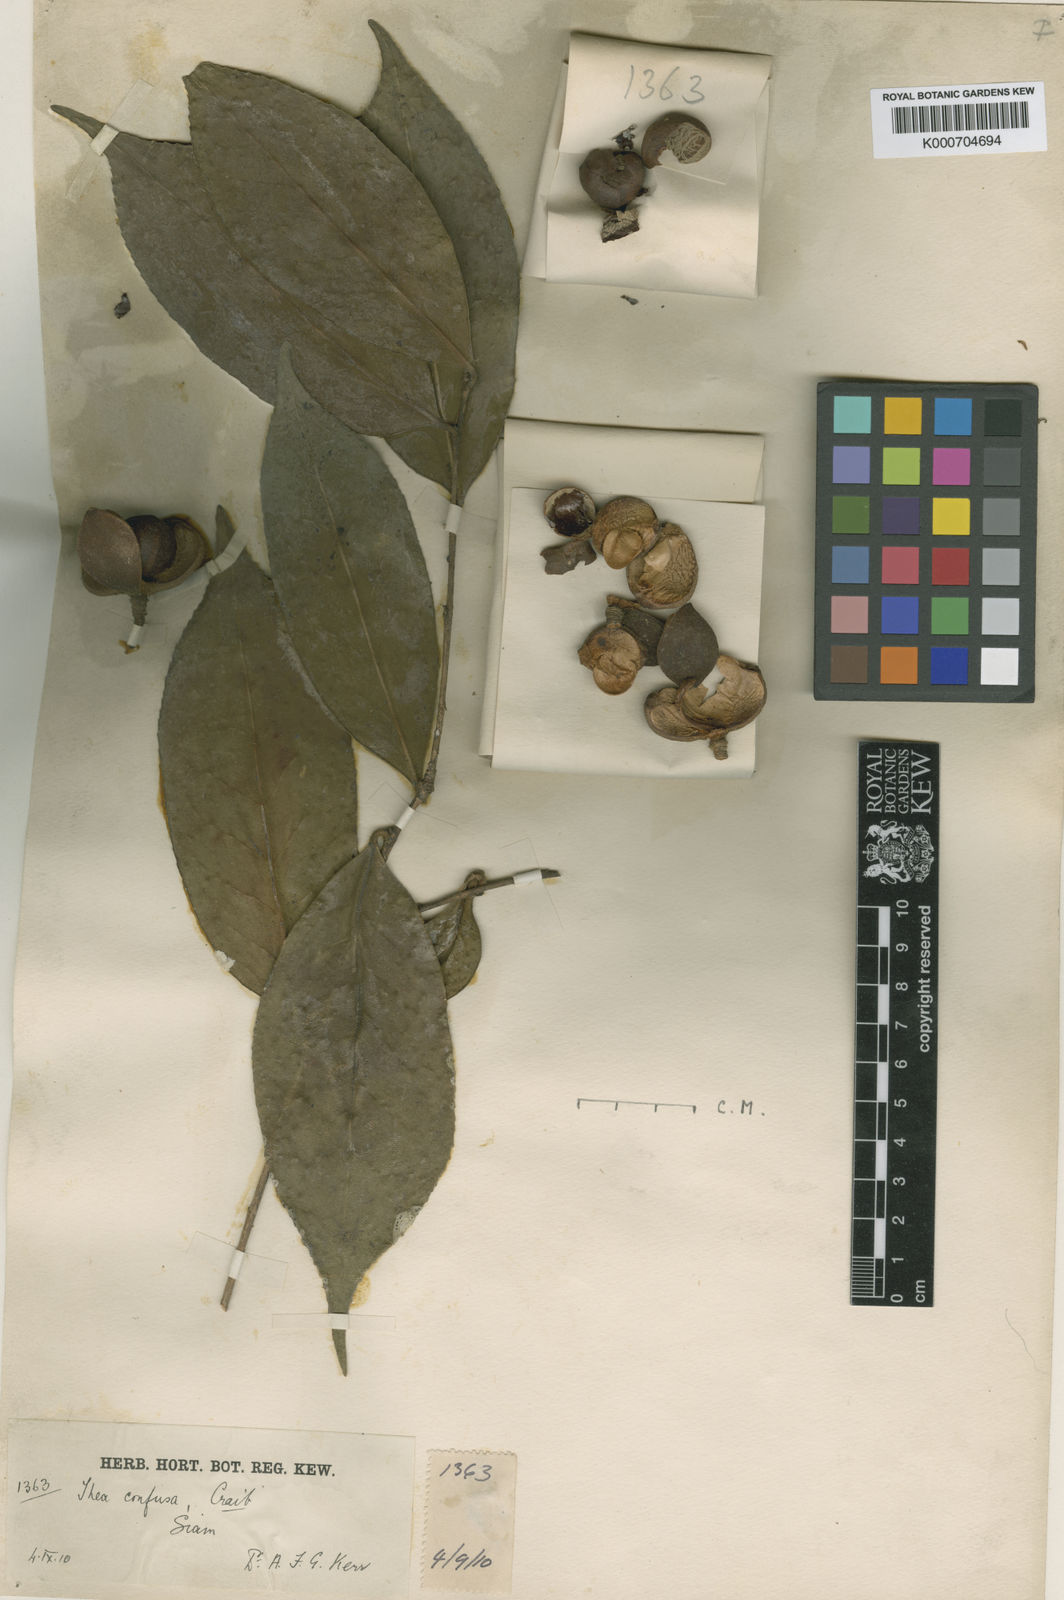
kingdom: Plantae
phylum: Tracheophyta
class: Magnoliopsida
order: Ericales
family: Theaceae
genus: Camellia
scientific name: Camellia oleifera
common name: Tea-oil-plant
